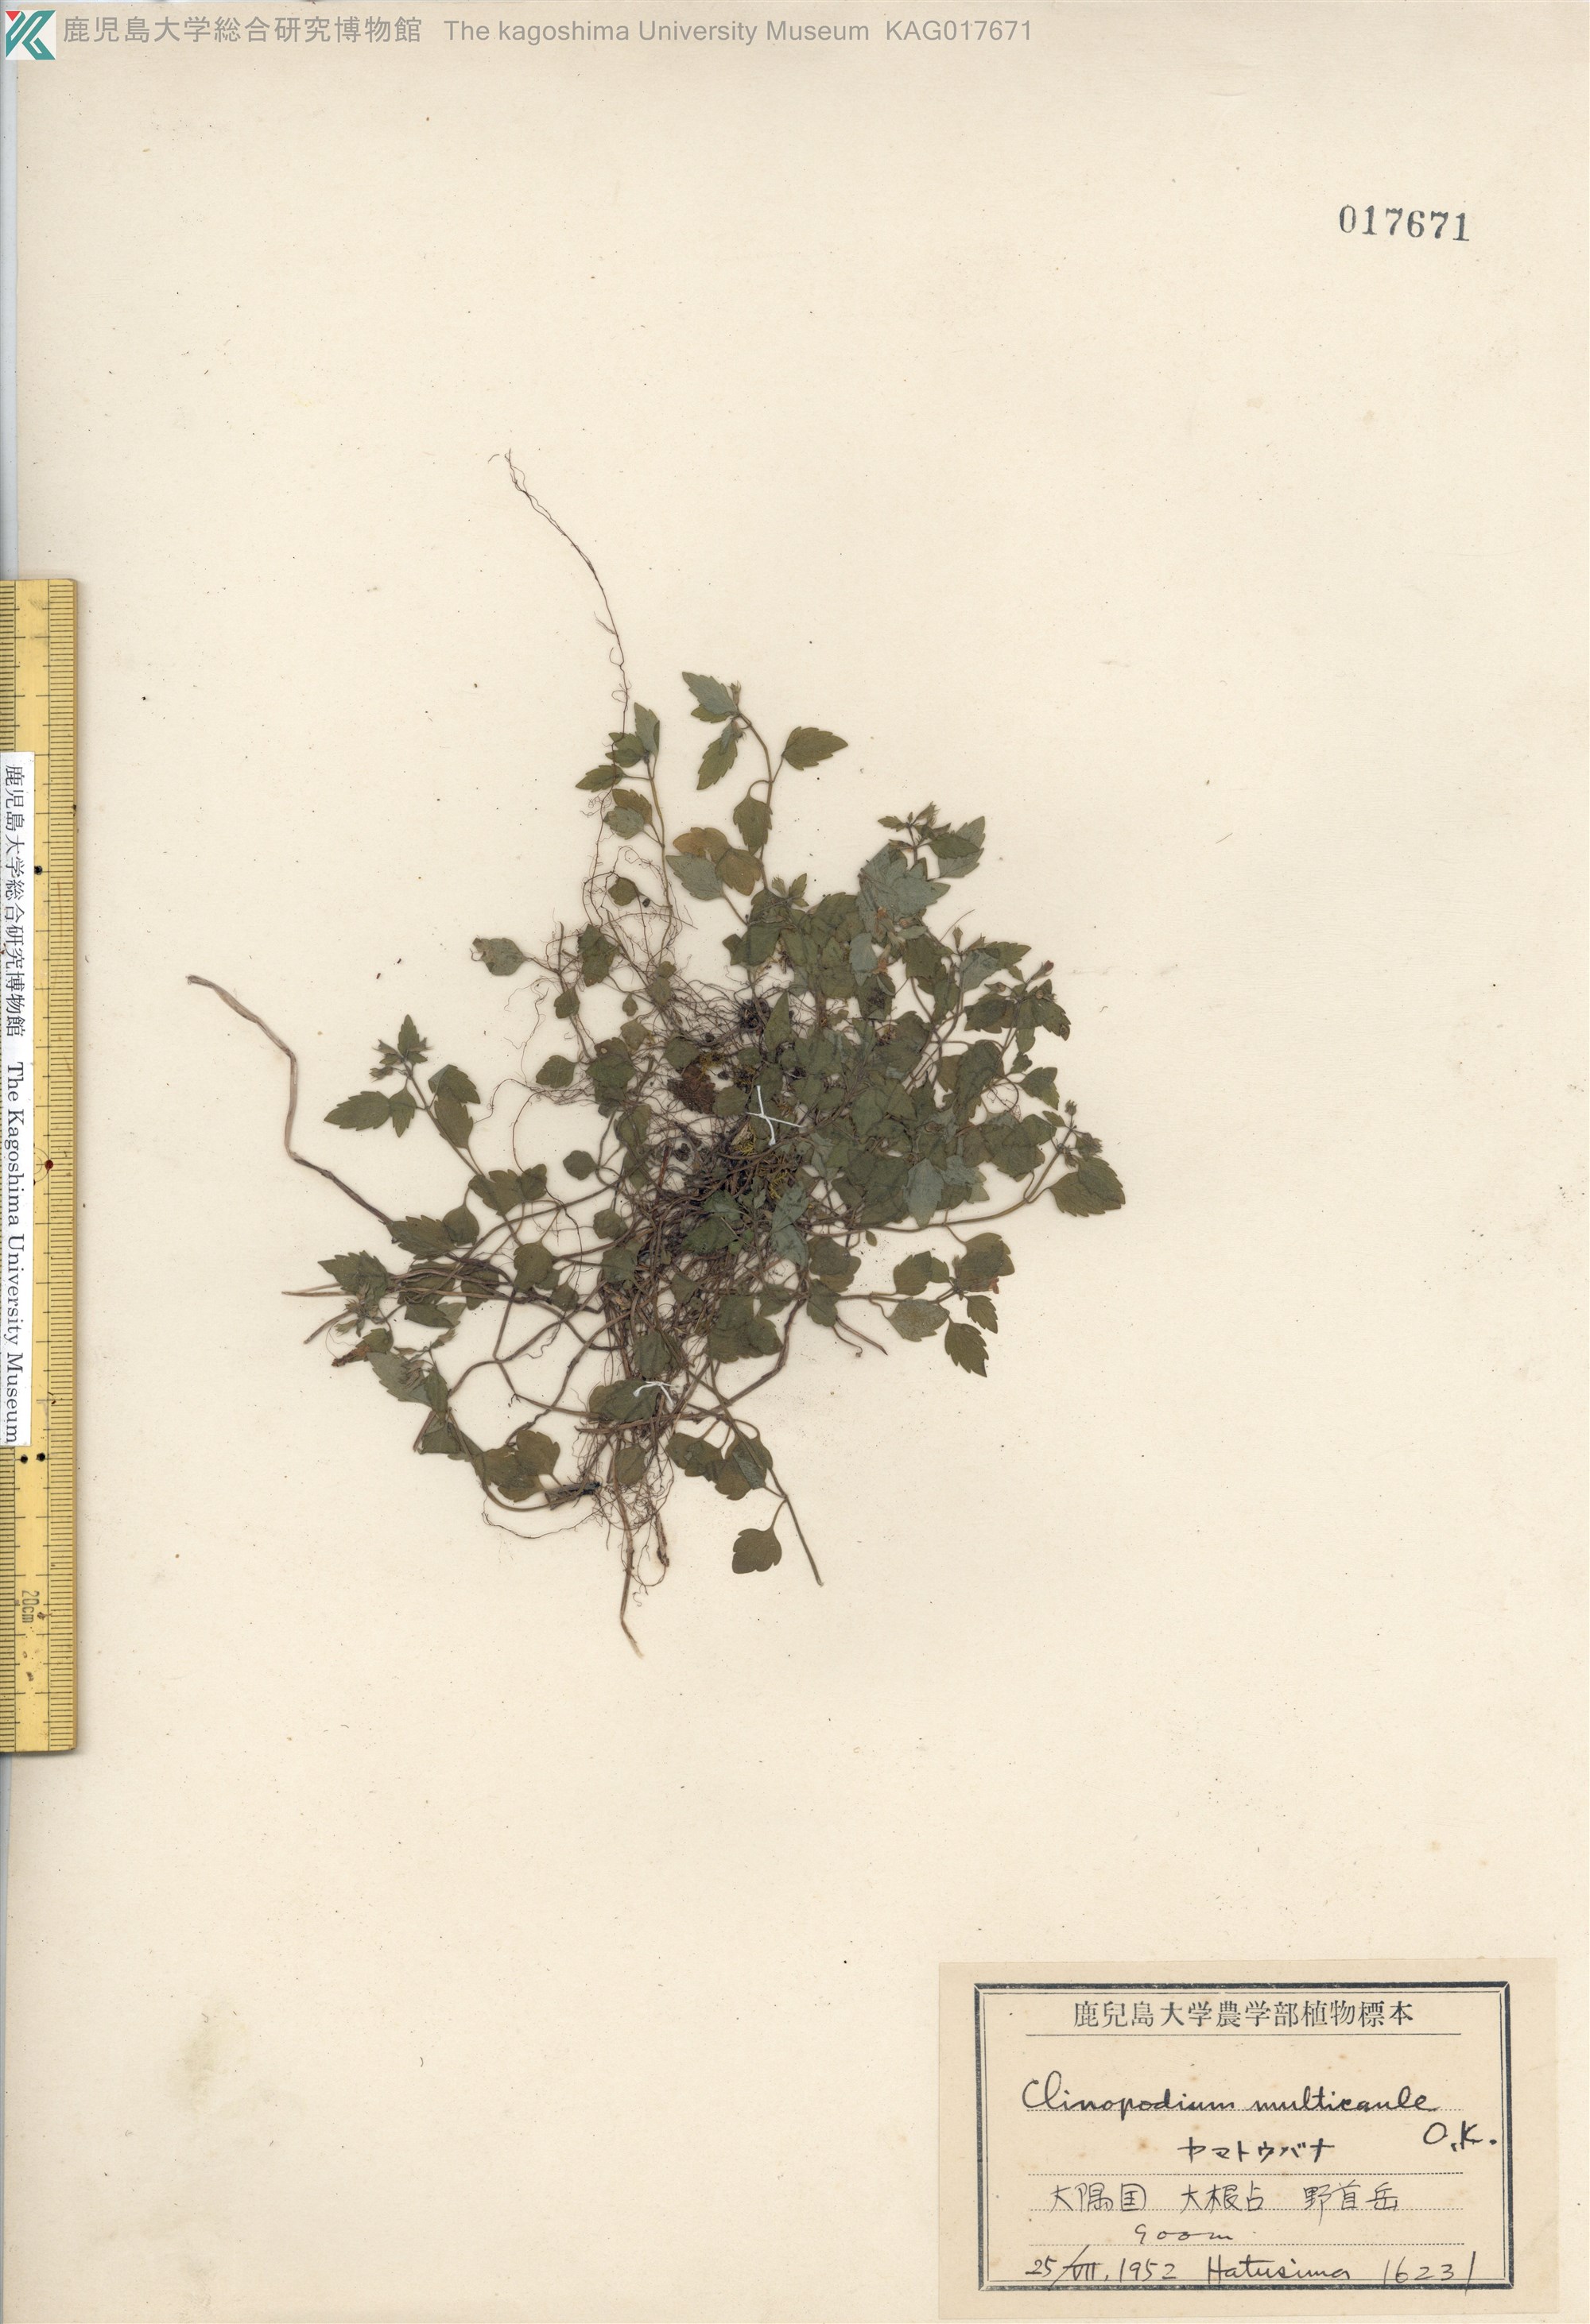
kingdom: Plantae
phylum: Tracheophyta
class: Magnoliopsida
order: Lamiales
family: Lamiaceae
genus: Clinopodium
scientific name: Clinopodium multicaule
